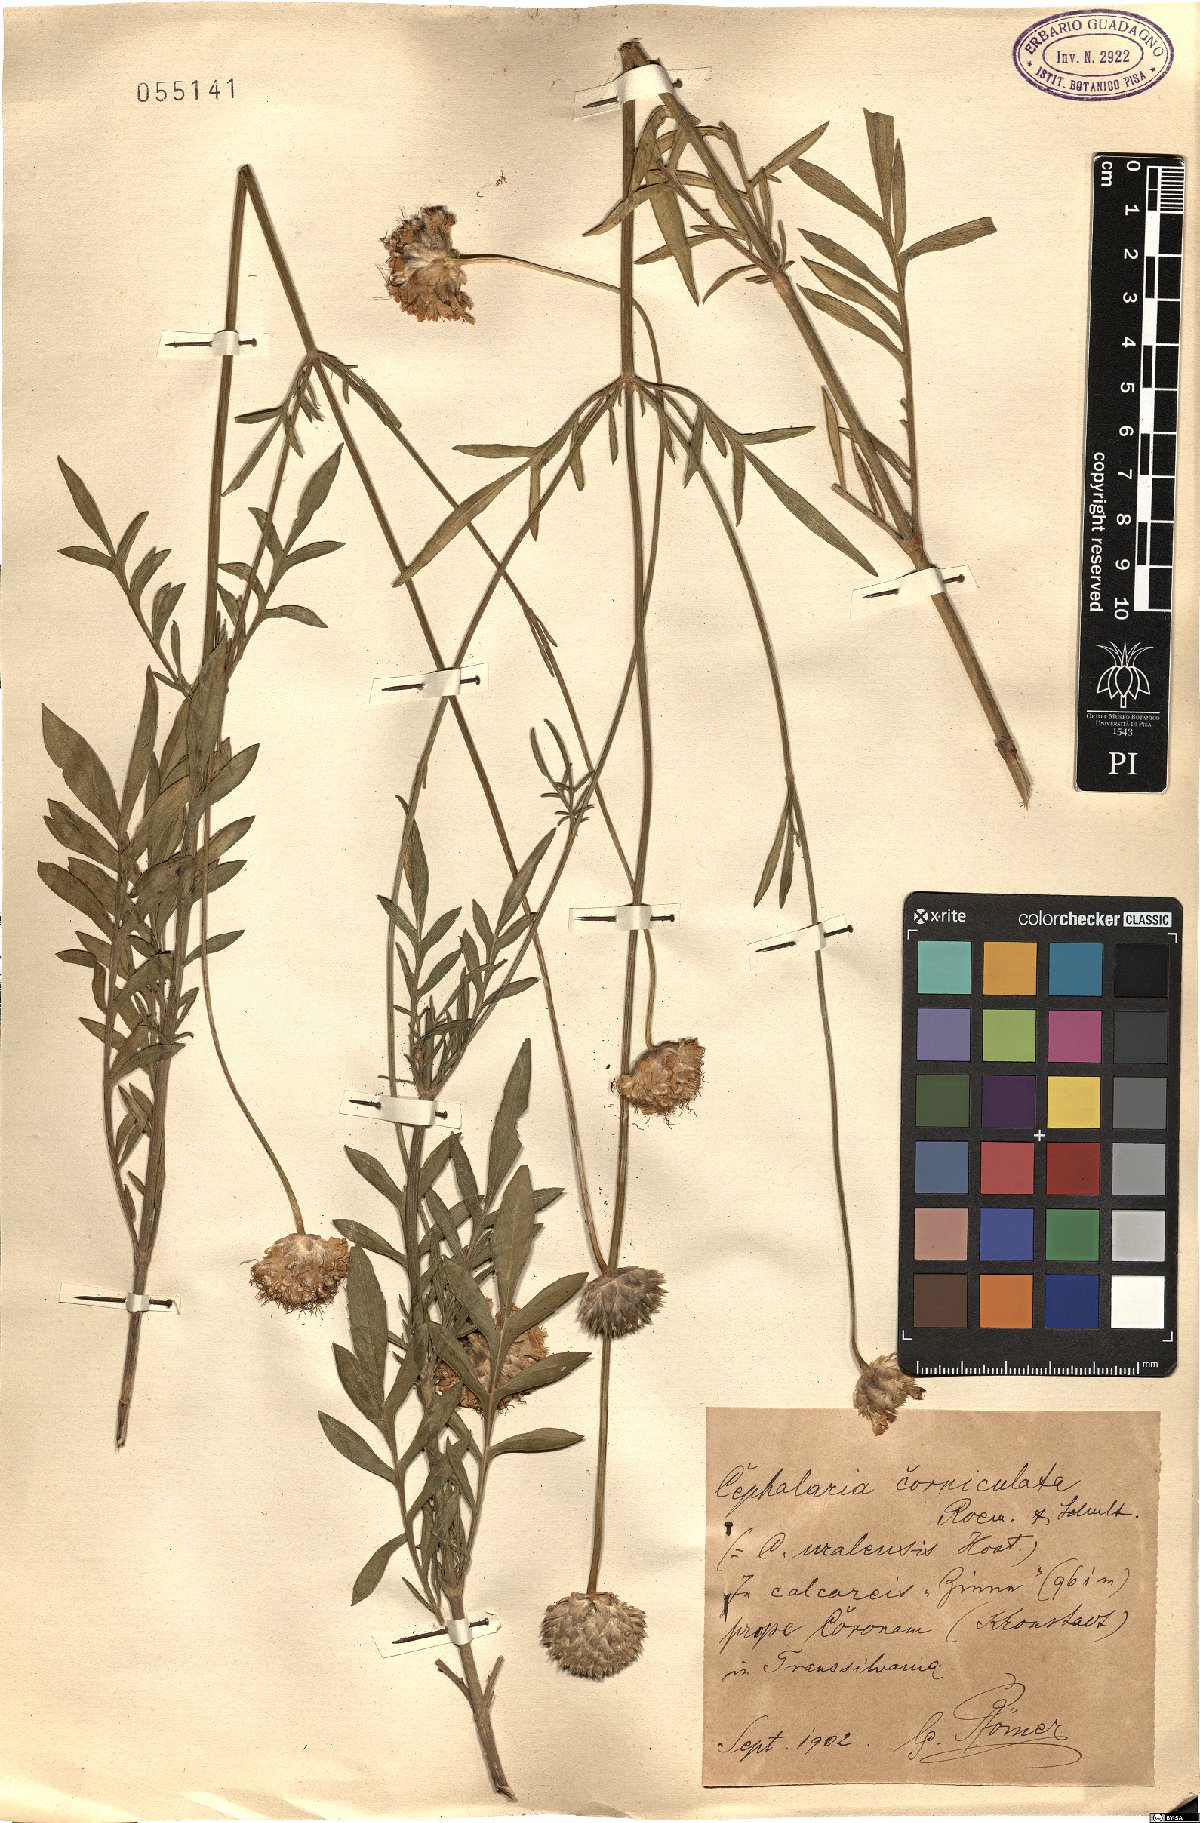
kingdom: Plantae
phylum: Tracheophyta
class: Magnoliopsida
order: Dipsacales
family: Caprifoliaceae
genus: Cephalaria
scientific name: Cephalaria uralensis
